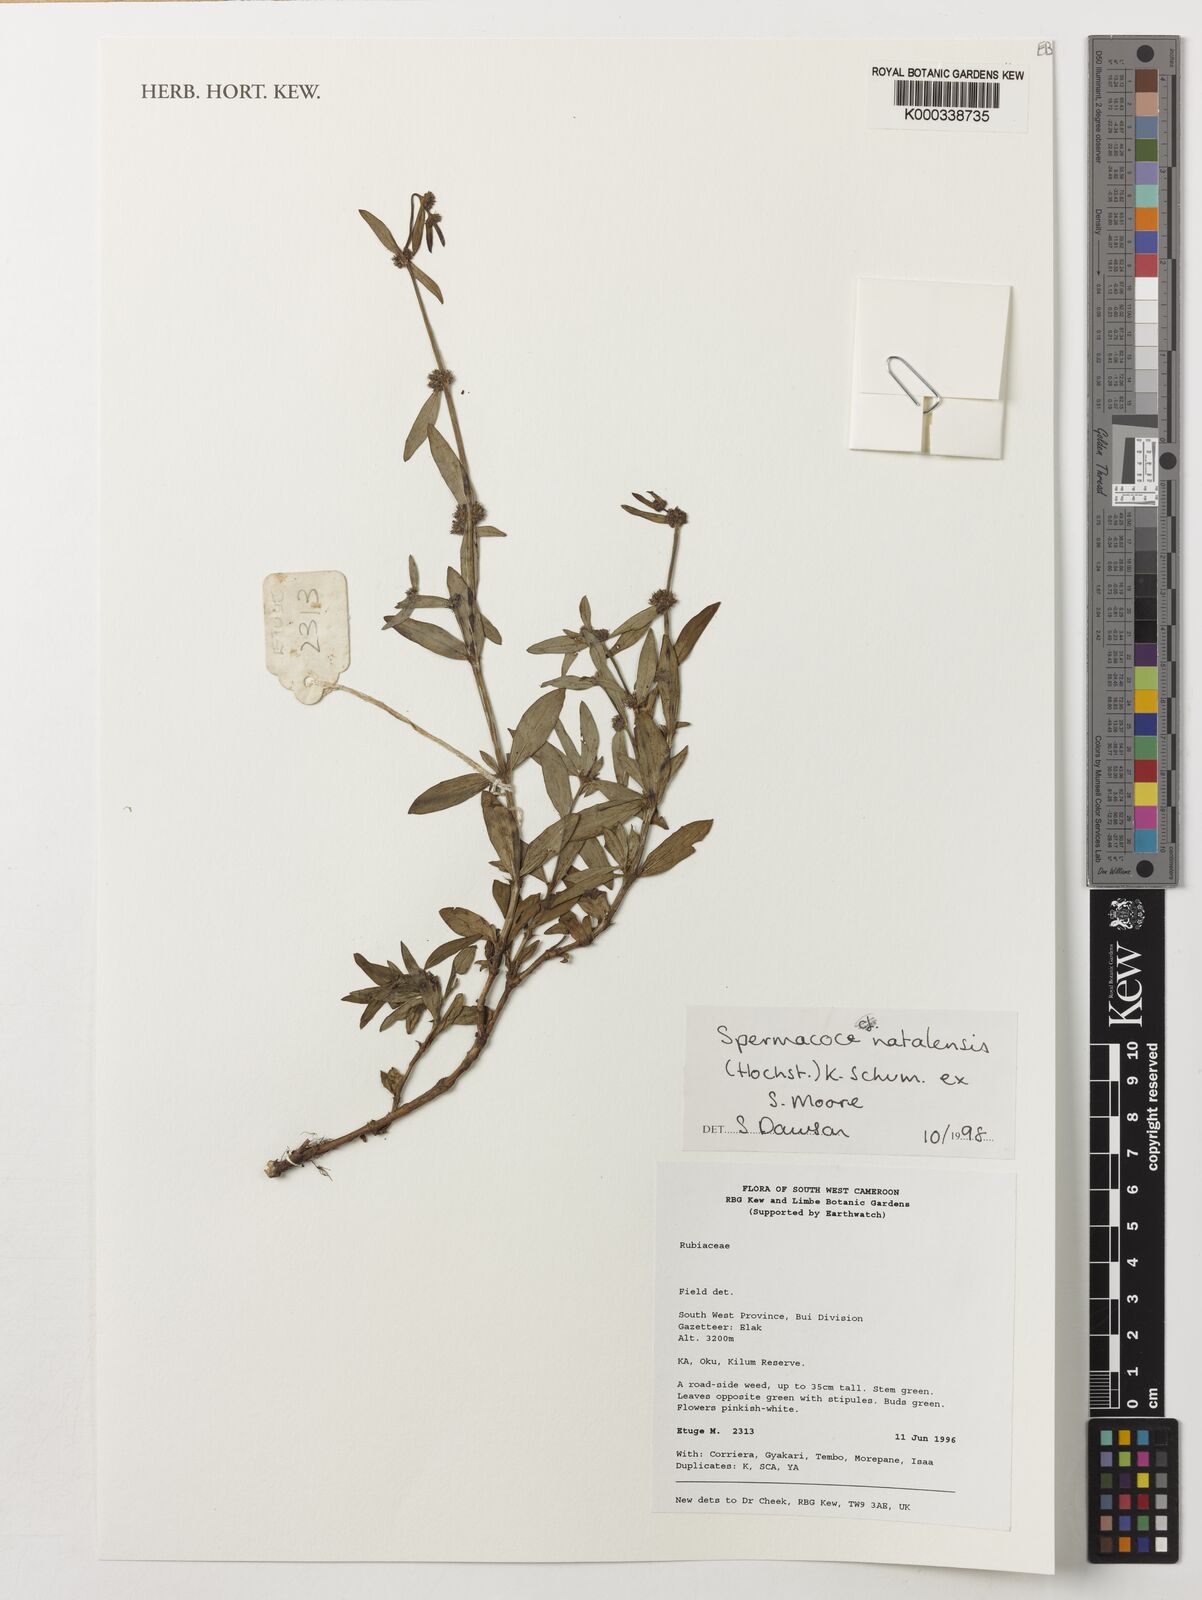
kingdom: Plantae
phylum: Tracheophyta
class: Magnoliopsida
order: Gentianales
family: Rubiaceae
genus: Spermacoce
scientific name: Spermacoce natalensis
